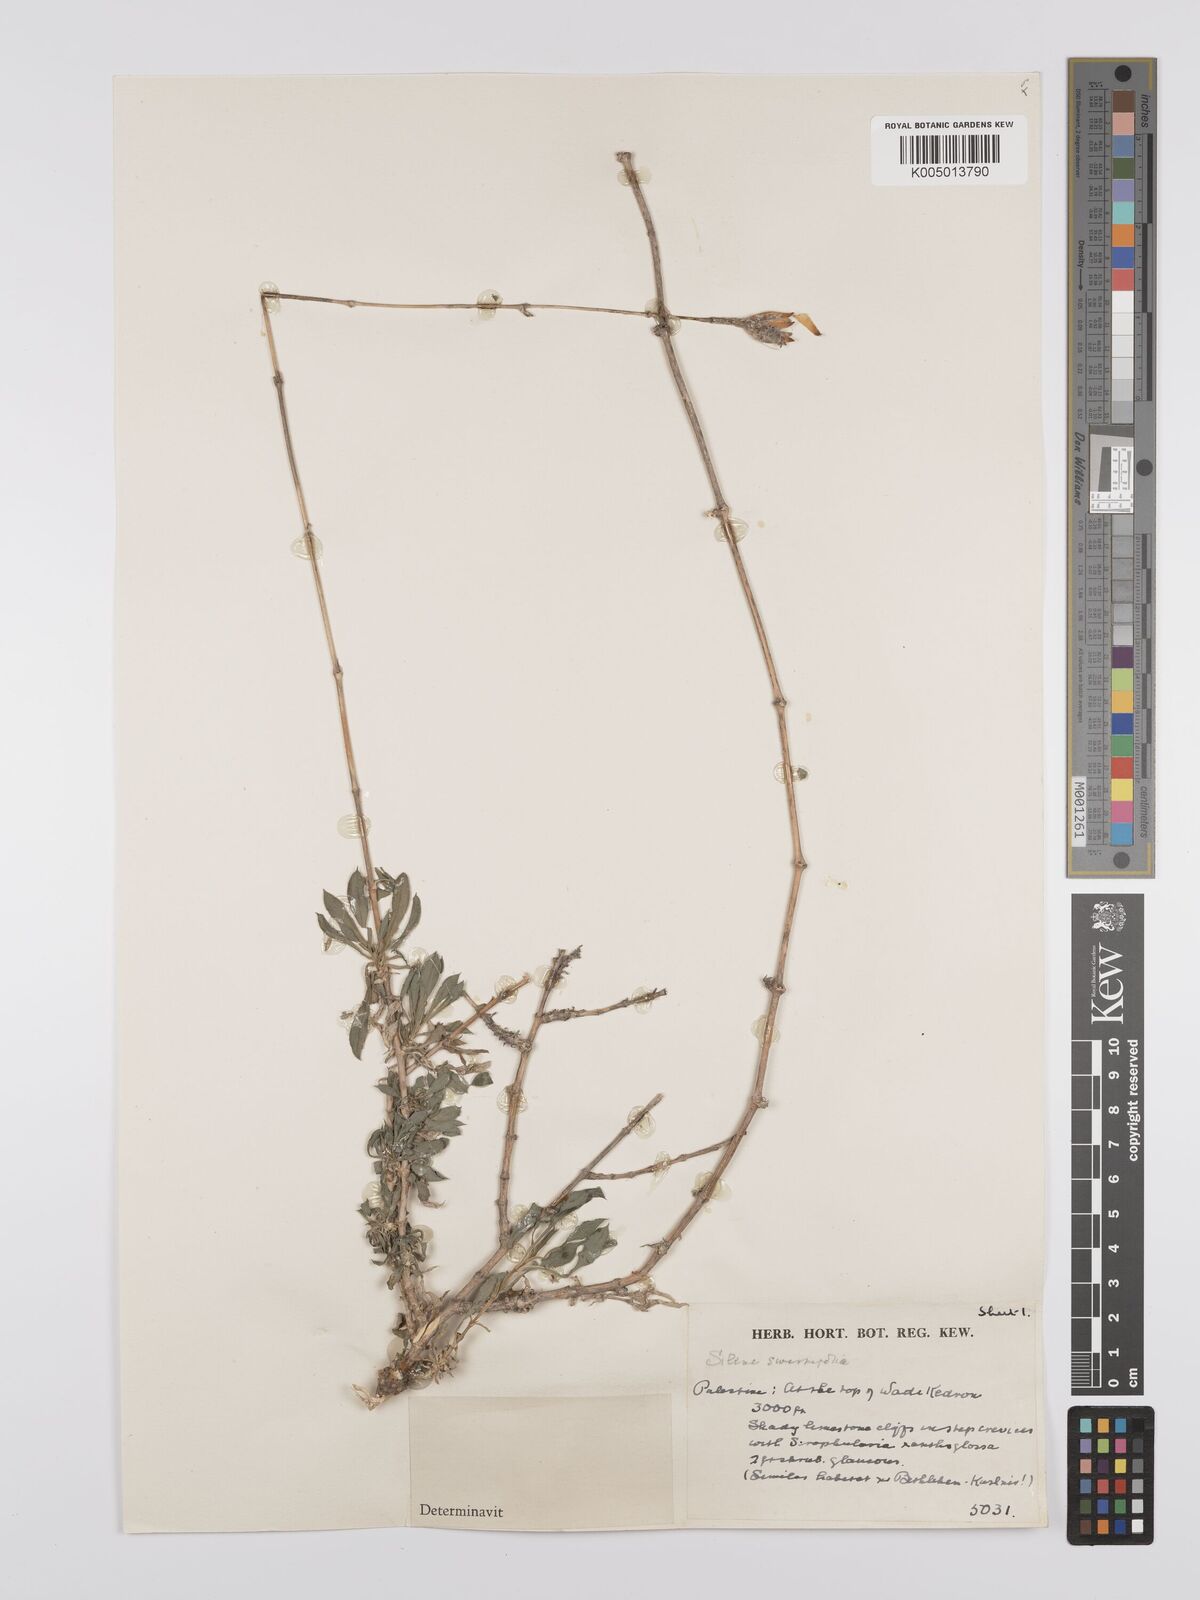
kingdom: Plantae
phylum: Tracheophyta
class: Magnoliopsida
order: Caryophyllales
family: Caryophyllaceae
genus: Silene
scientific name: Silene swertiifolia
